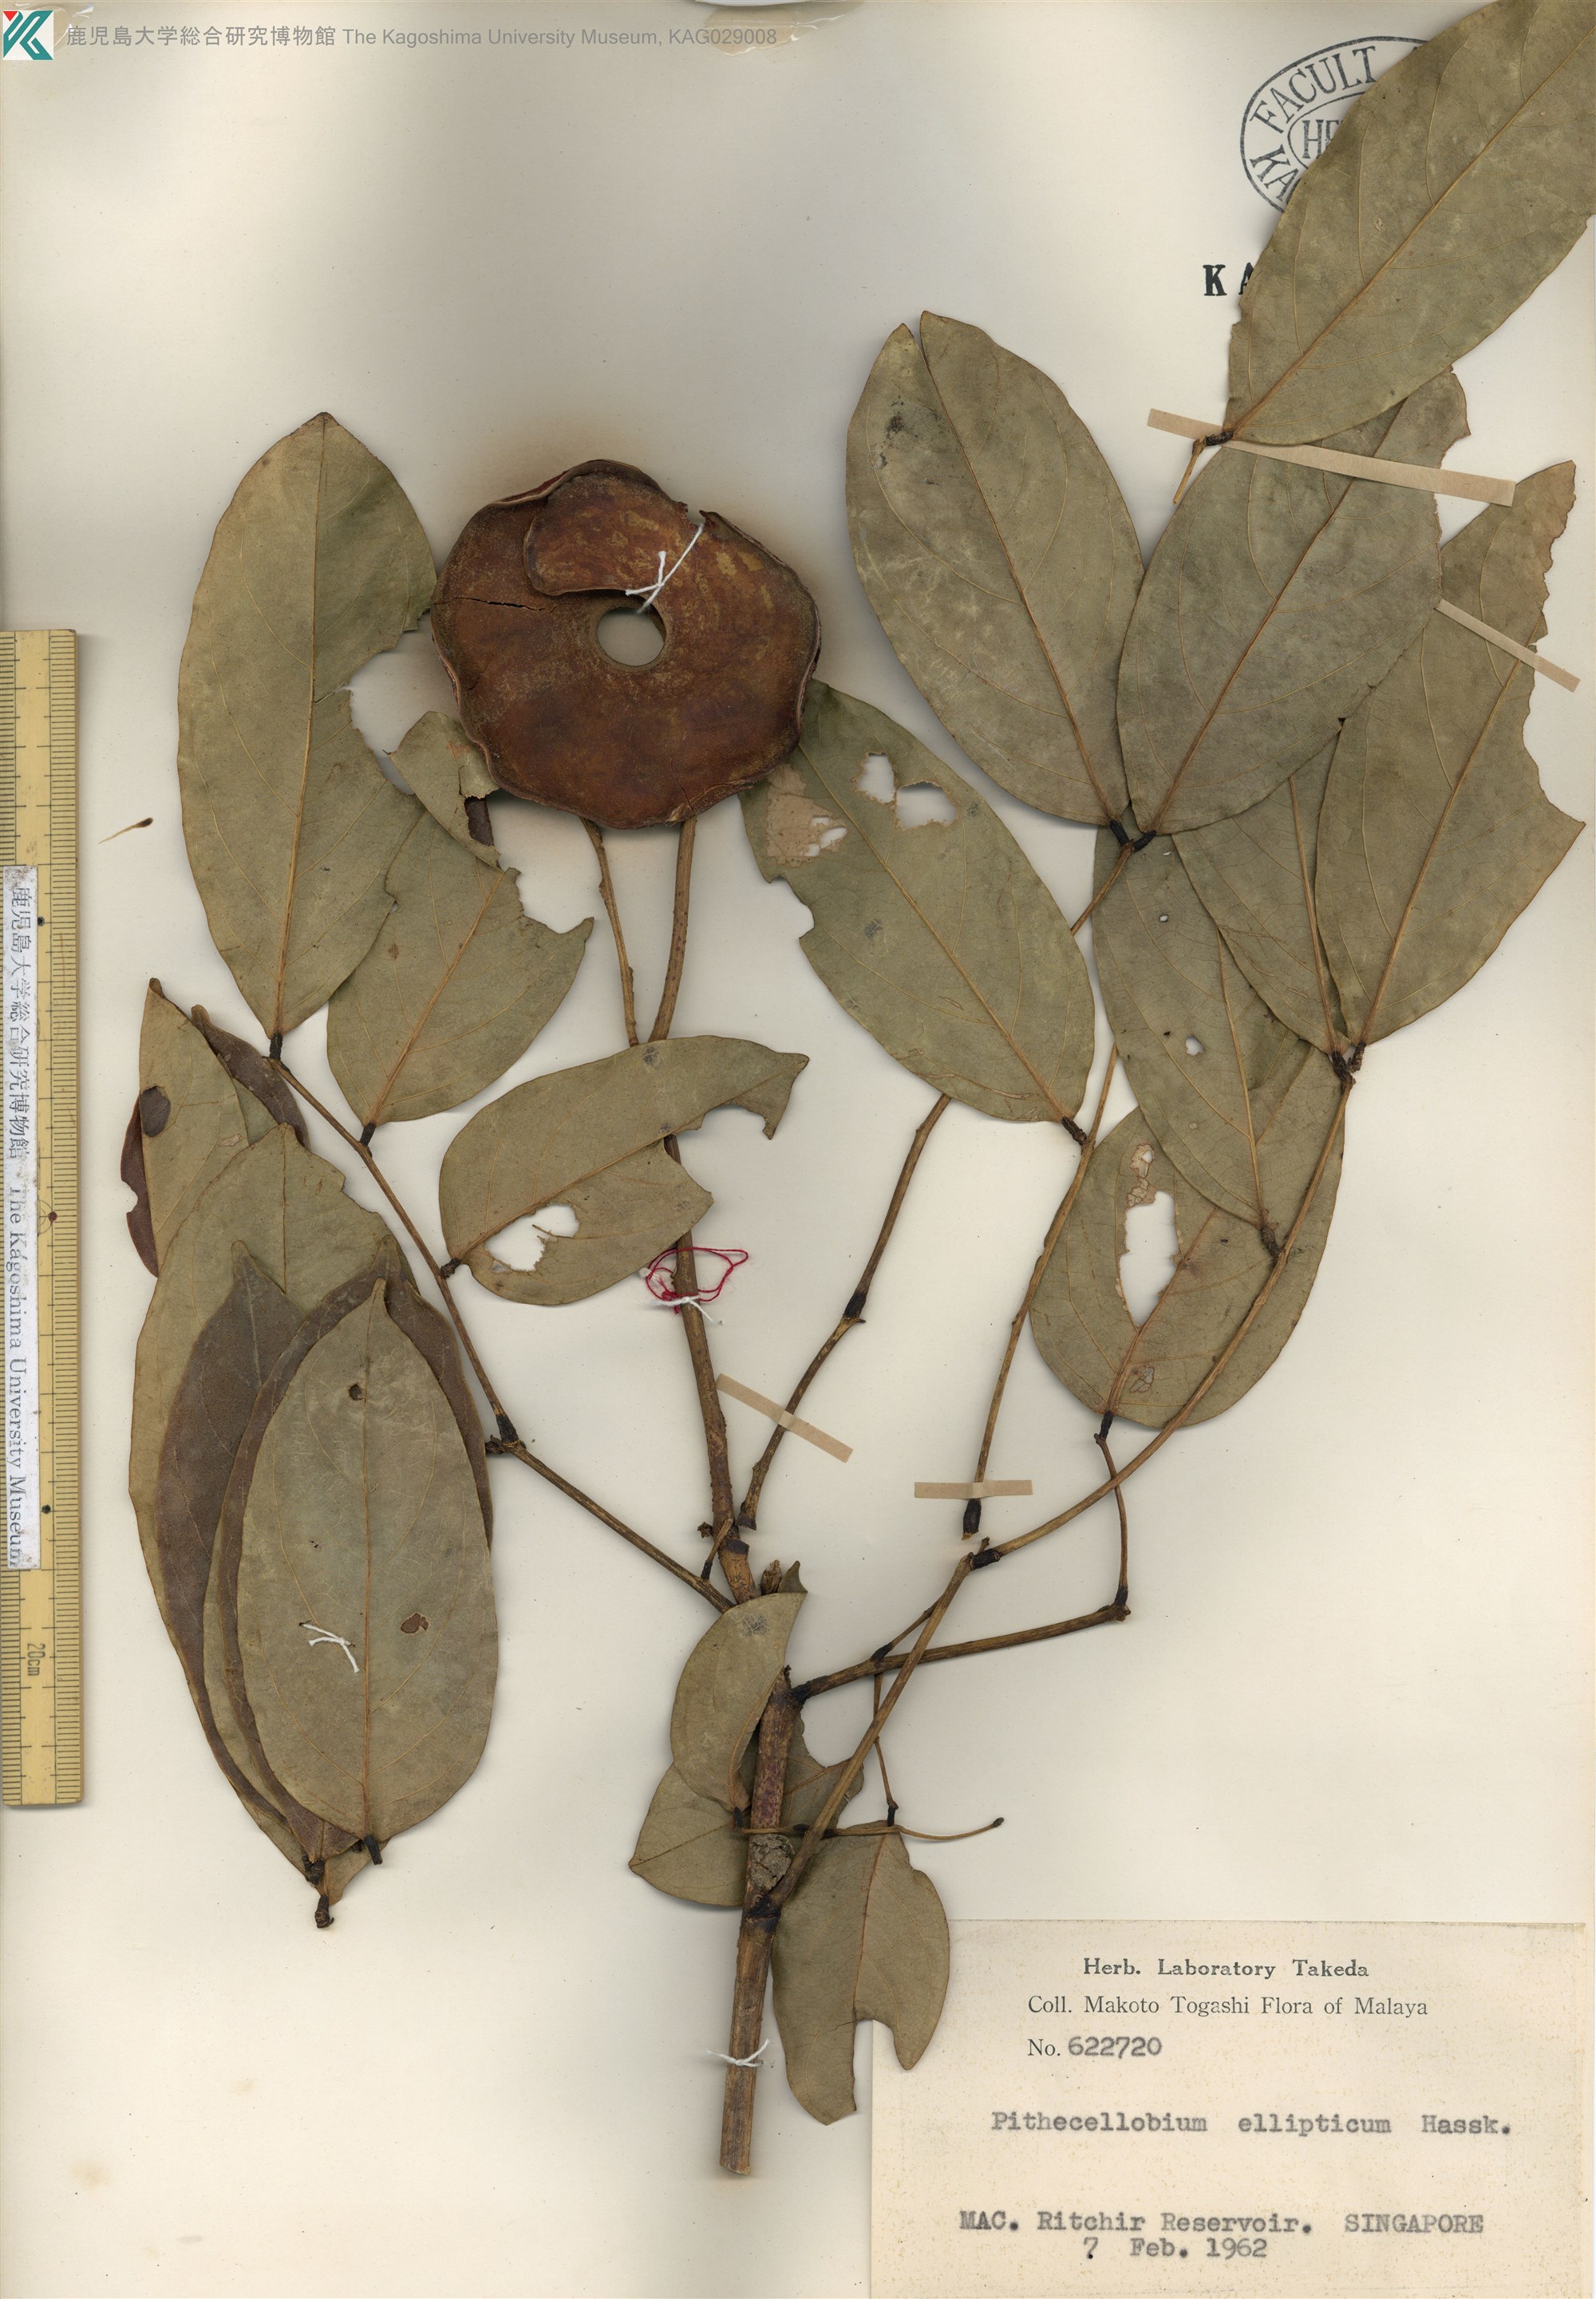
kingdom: Plantae
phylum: Tracheophyta
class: Magnoliopsida
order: Fabales
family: Fabaceae
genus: Archidendron
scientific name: Archidendron ellipticum
